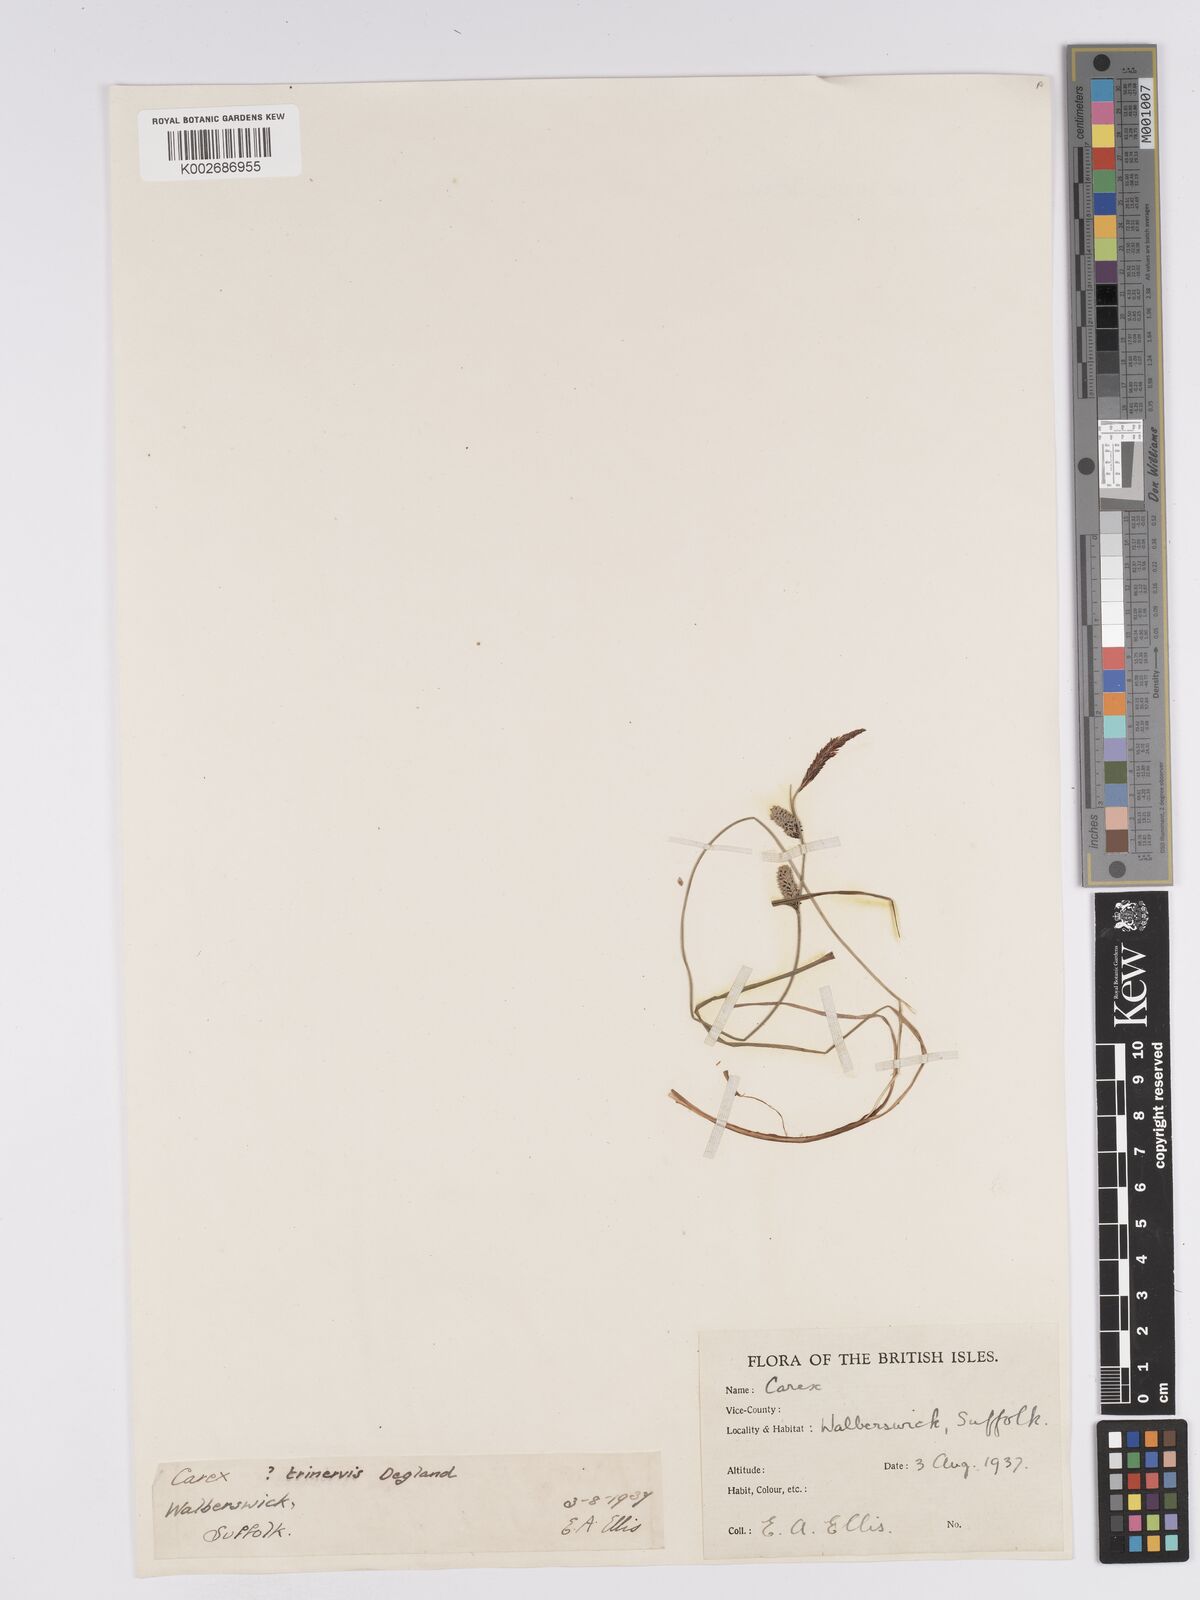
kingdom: Plantae
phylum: Tracheophyta
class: Liliopsida
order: Poales
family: Cyperaceae
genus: Carex
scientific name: Carex nigra
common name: Common sedge
